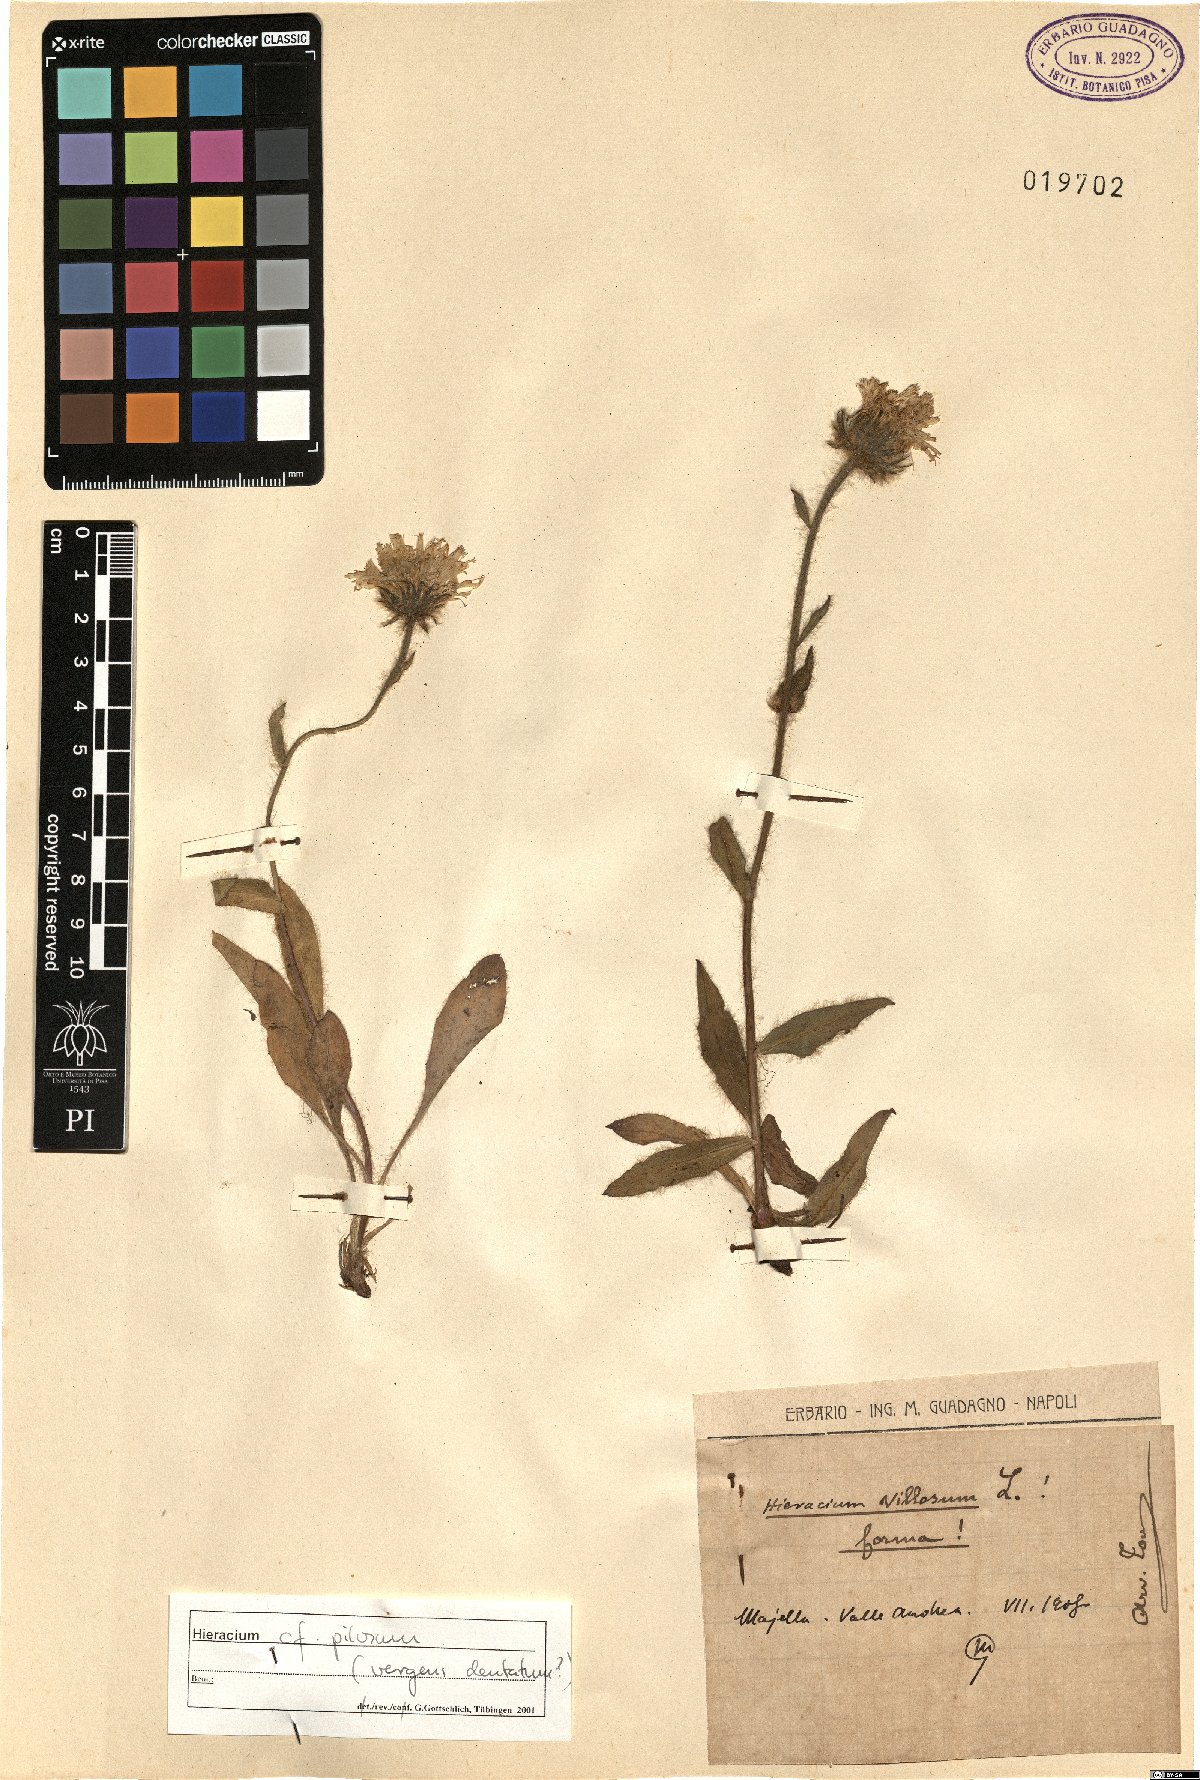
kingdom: Plantae
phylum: Tracheophyta
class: Magnoliopsida
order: Asterales
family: Asteraceae
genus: Hieracium
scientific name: Hieracium pilosum
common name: Fimbriate-pitted hawkweed
